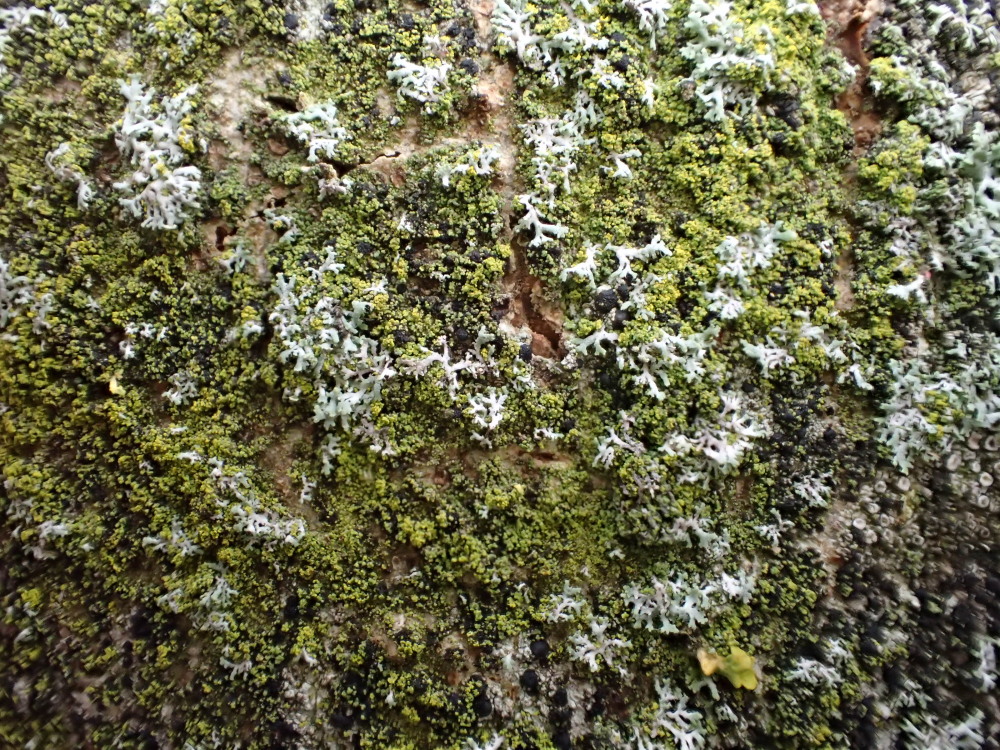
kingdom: Fungi
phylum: Ascomycota
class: Candelariomycetes
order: Candelariales
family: Candelariaceae
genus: Candelariella
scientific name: Candelariella vitellina
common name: almindelig æggeblommelav
